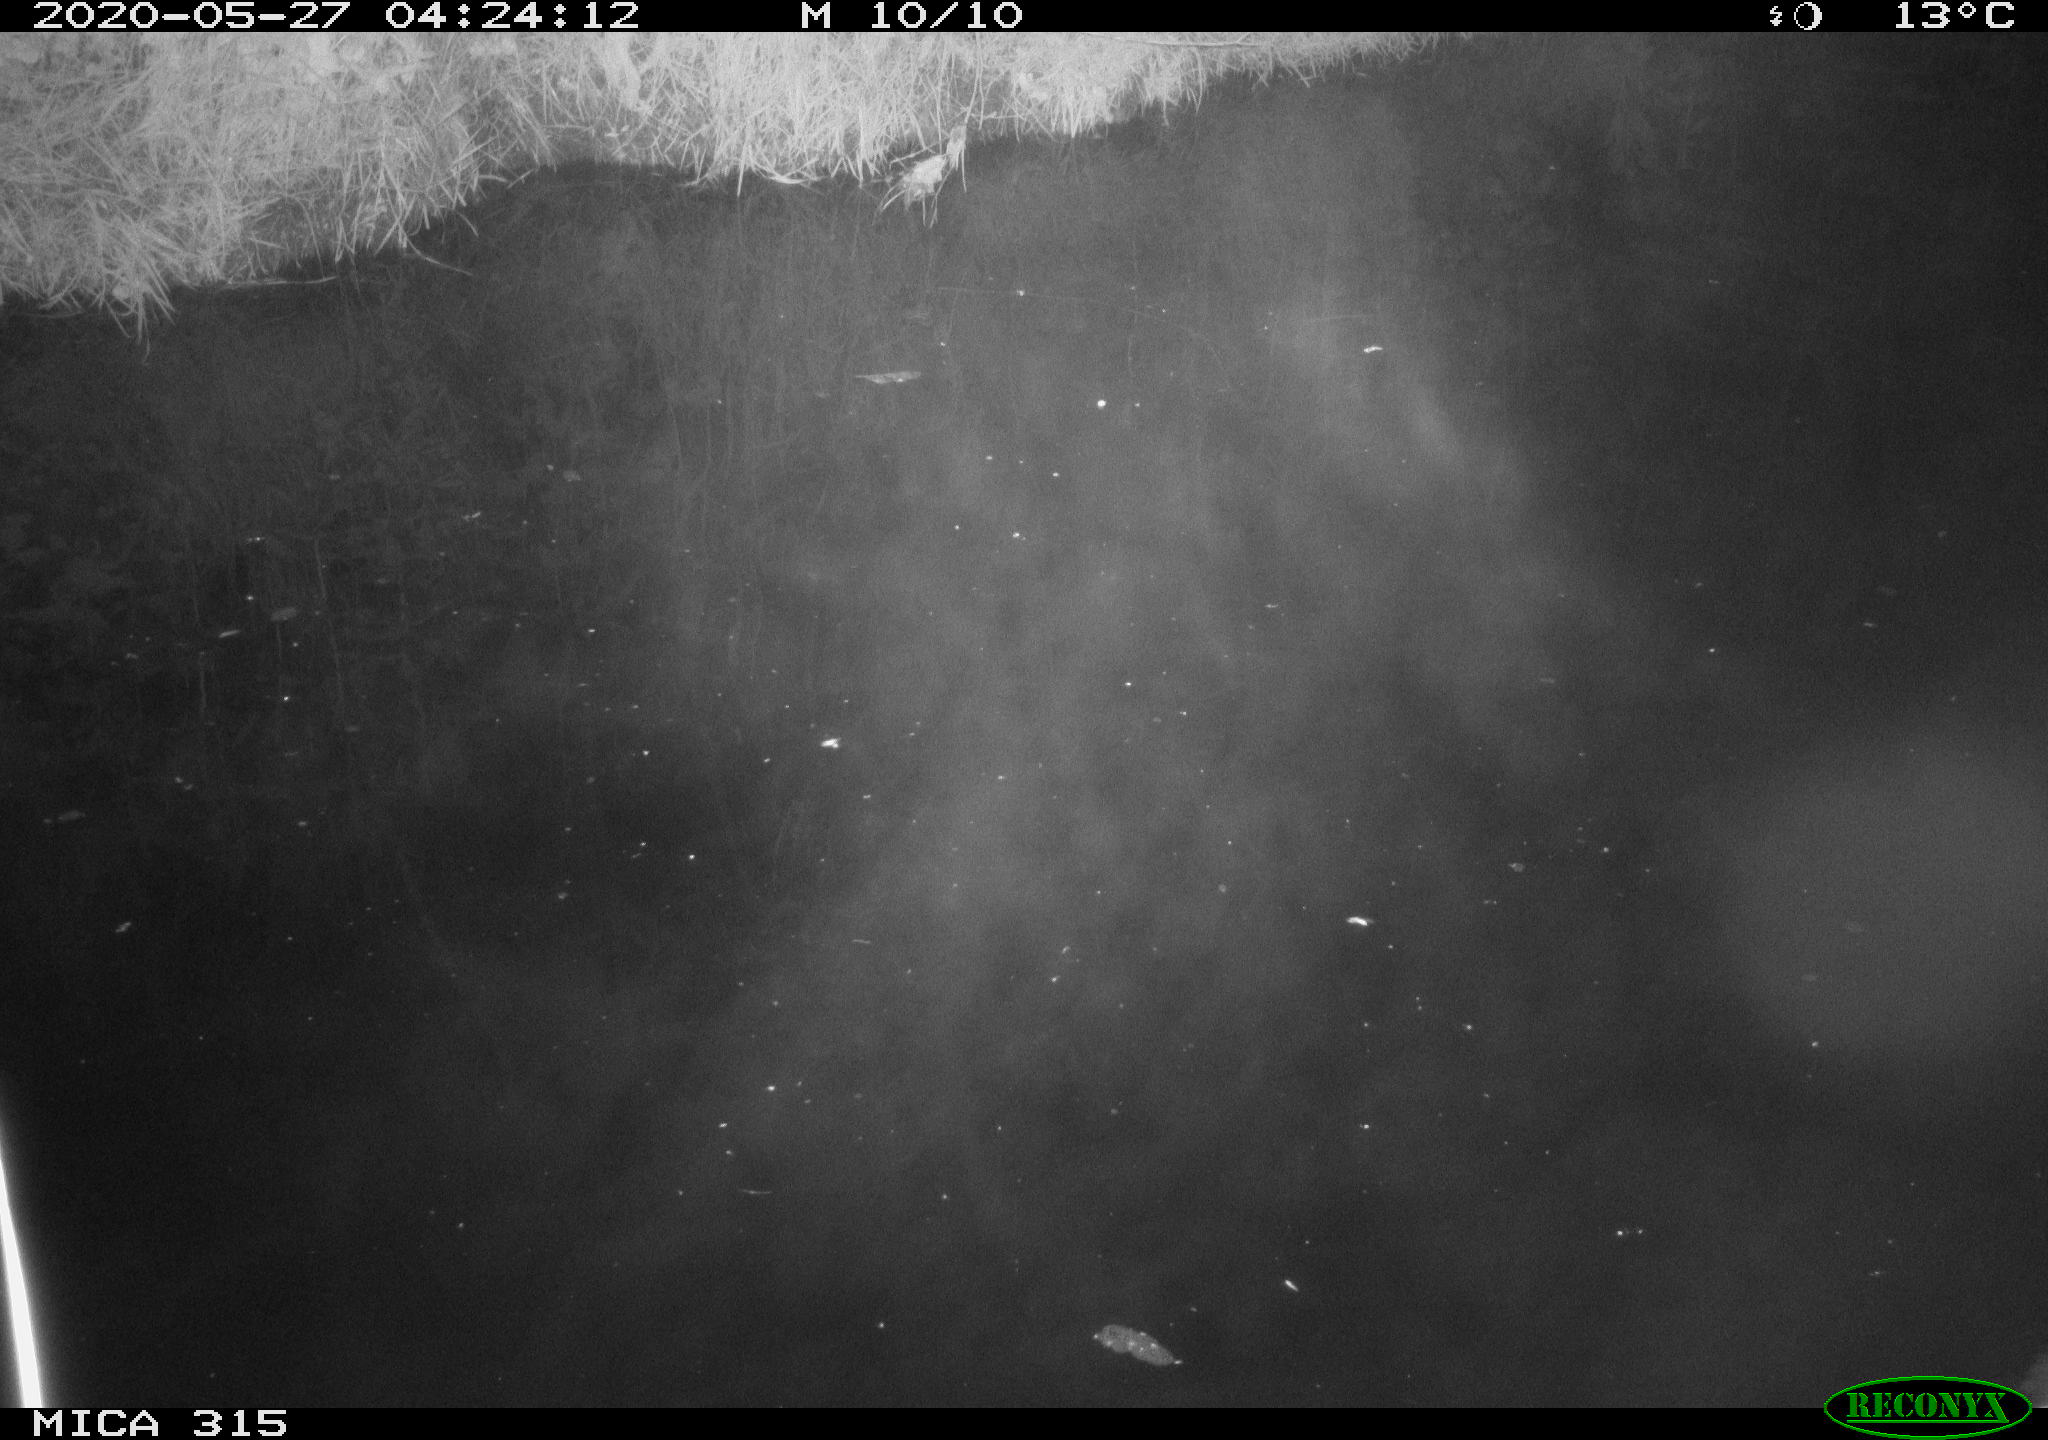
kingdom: Animalia
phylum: Chordata
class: Aves
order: Anseriformes
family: Anatidae
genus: Anas
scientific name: Anas platyrhynchos
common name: Mallard
